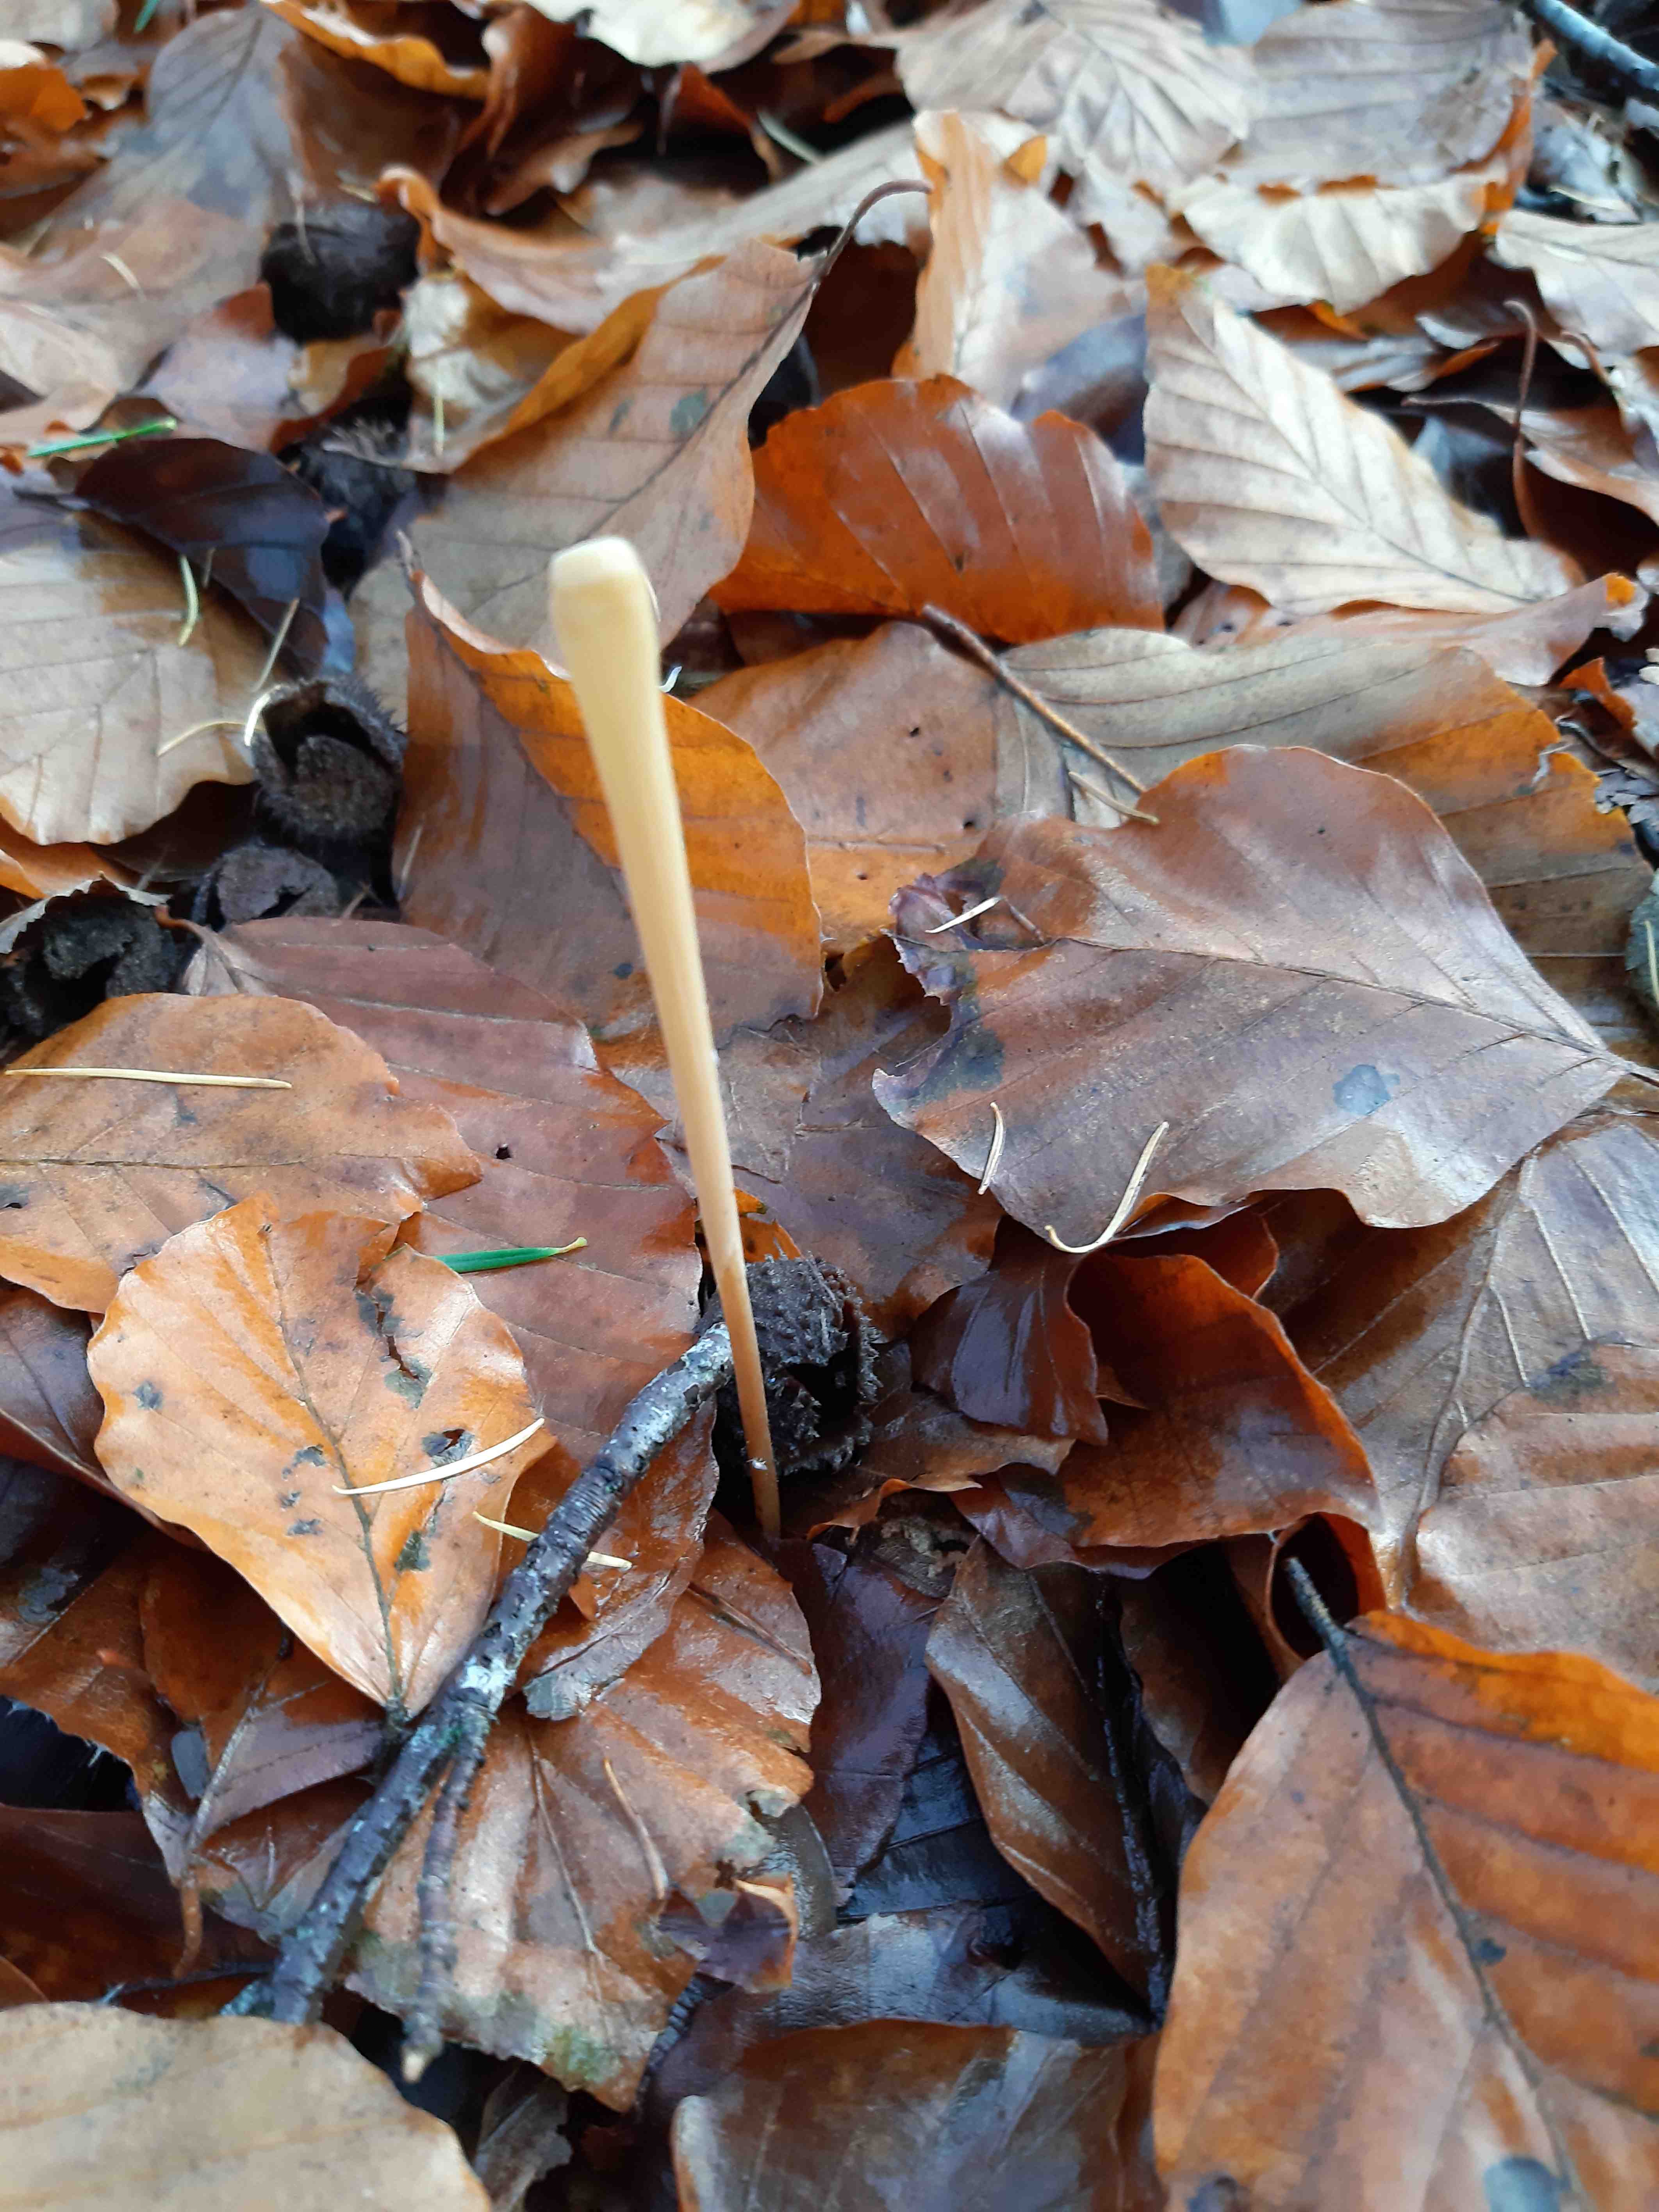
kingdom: Fungi
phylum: Basidiomycota
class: Agaricomycetes
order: Agaricales
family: Typhulaceae
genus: Typhula
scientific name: Typhula fistulosa
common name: pibet rørkølle
